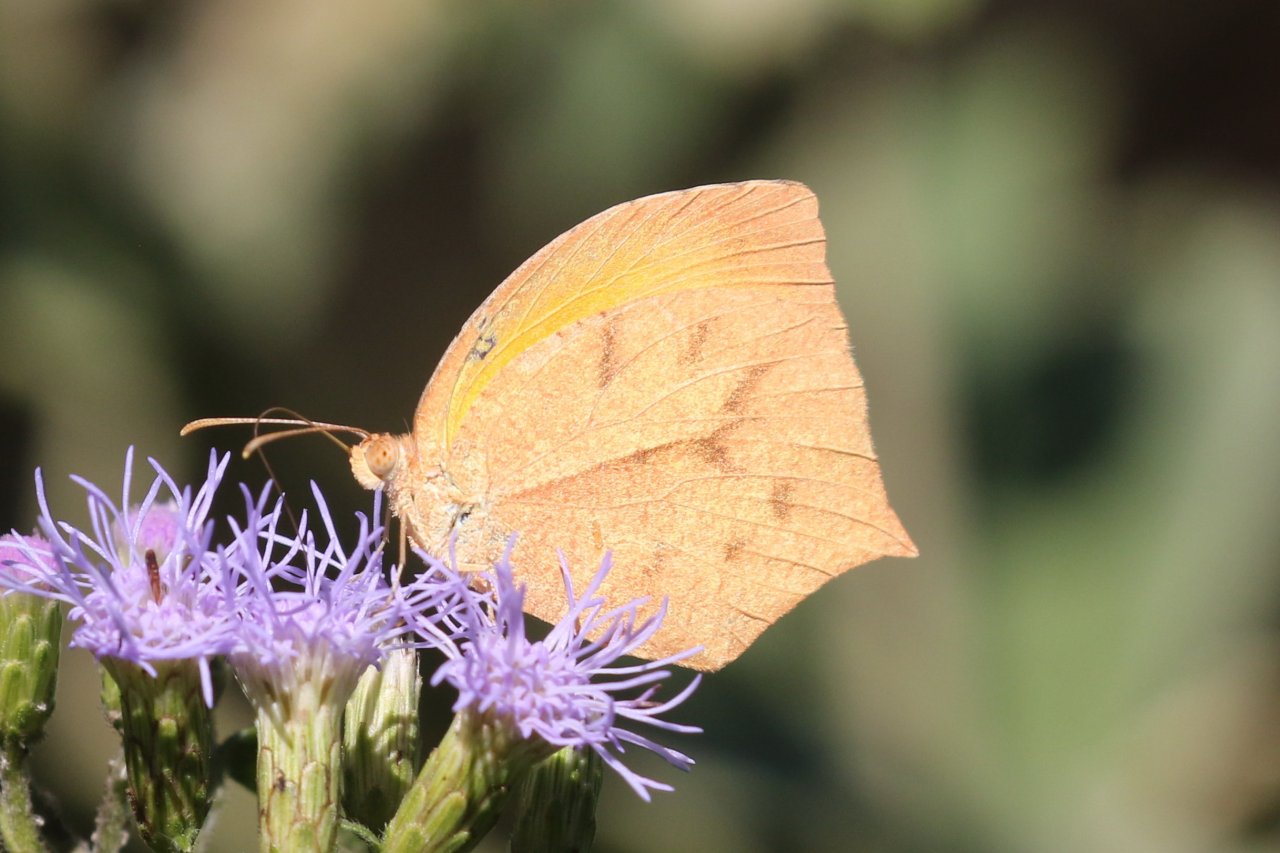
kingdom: Animalia
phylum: Arthropoda
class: Insecta
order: Lepidoptera
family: Pieridae
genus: Pyrisitia
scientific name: Pyrisitia proterpia
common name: Tailed Orange
